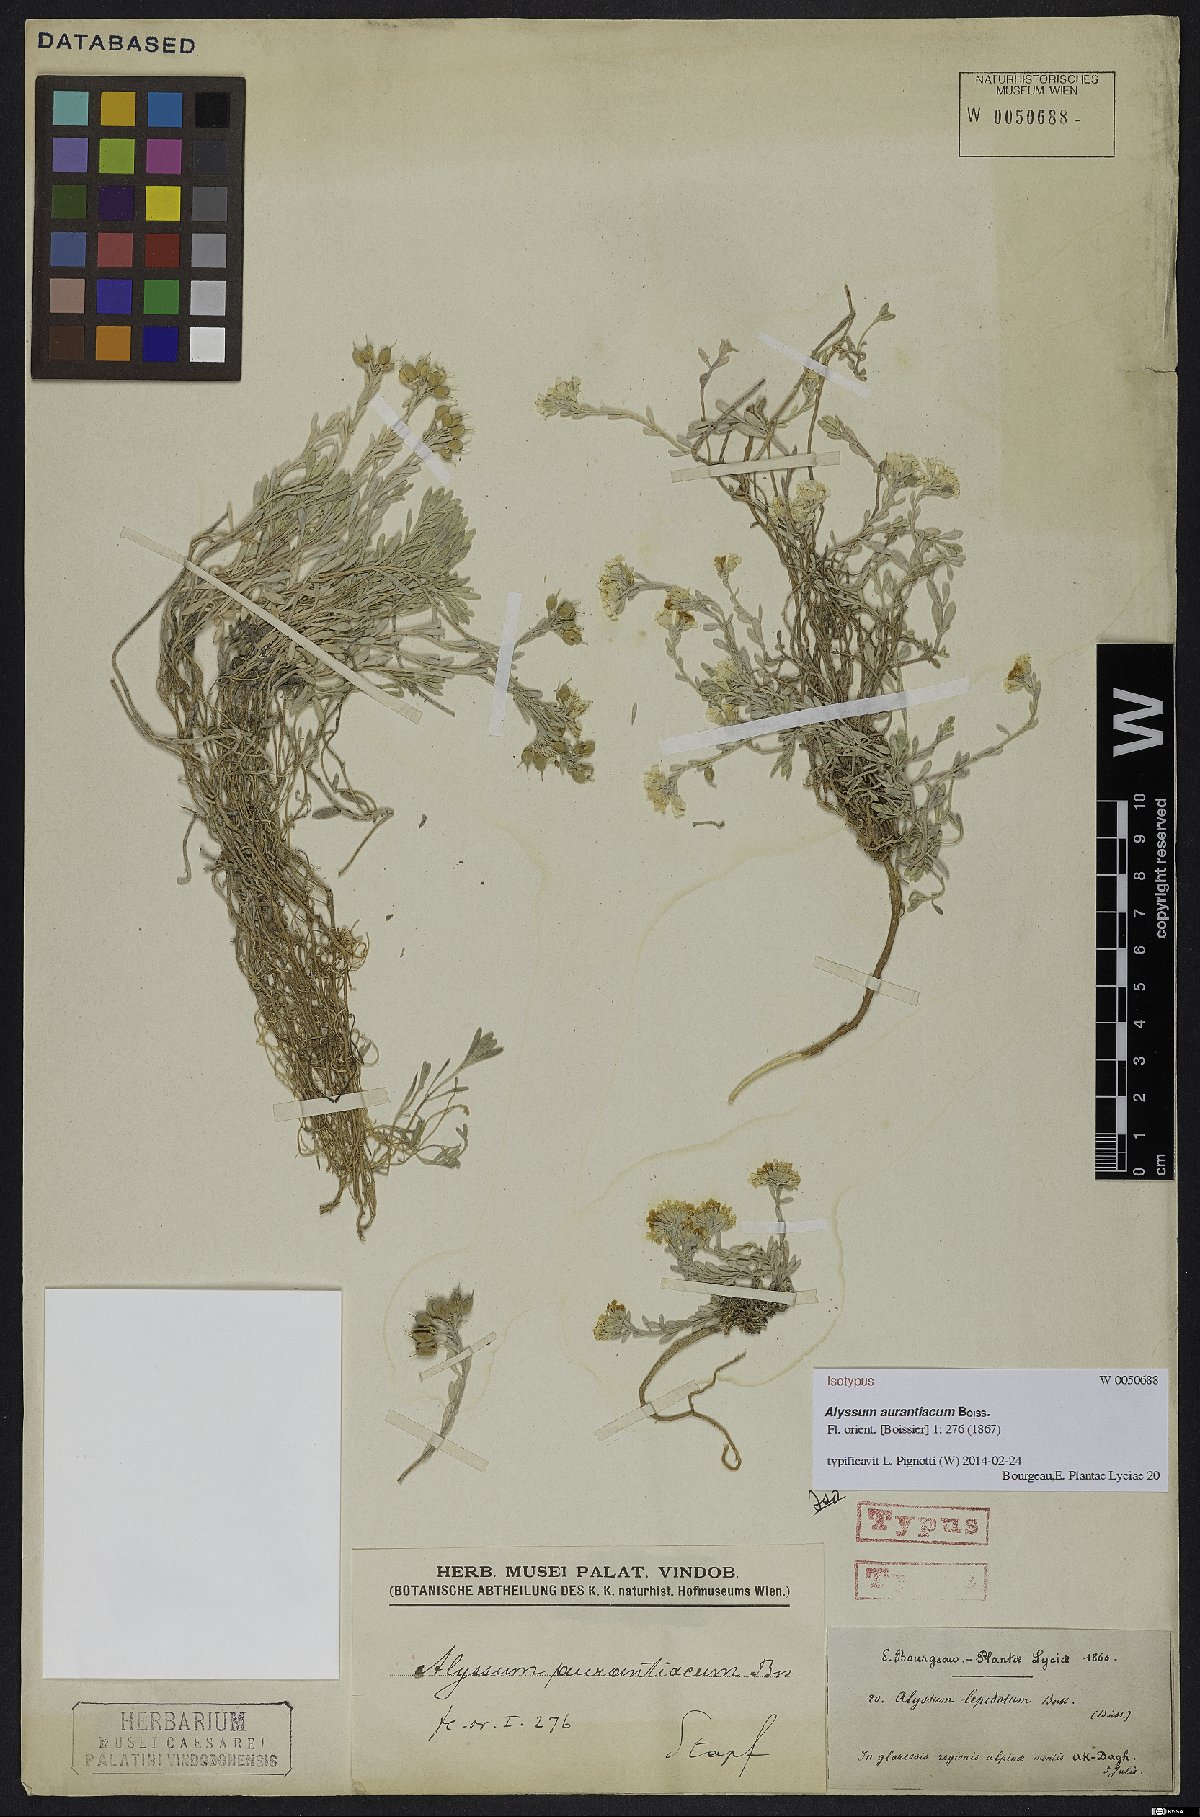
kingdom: Plantae
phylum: Tracheophyta
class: Magnoliopsida
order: Brassicales
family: Brassicaceae
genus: Alyssum
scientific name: Alyssum aurantiacum
